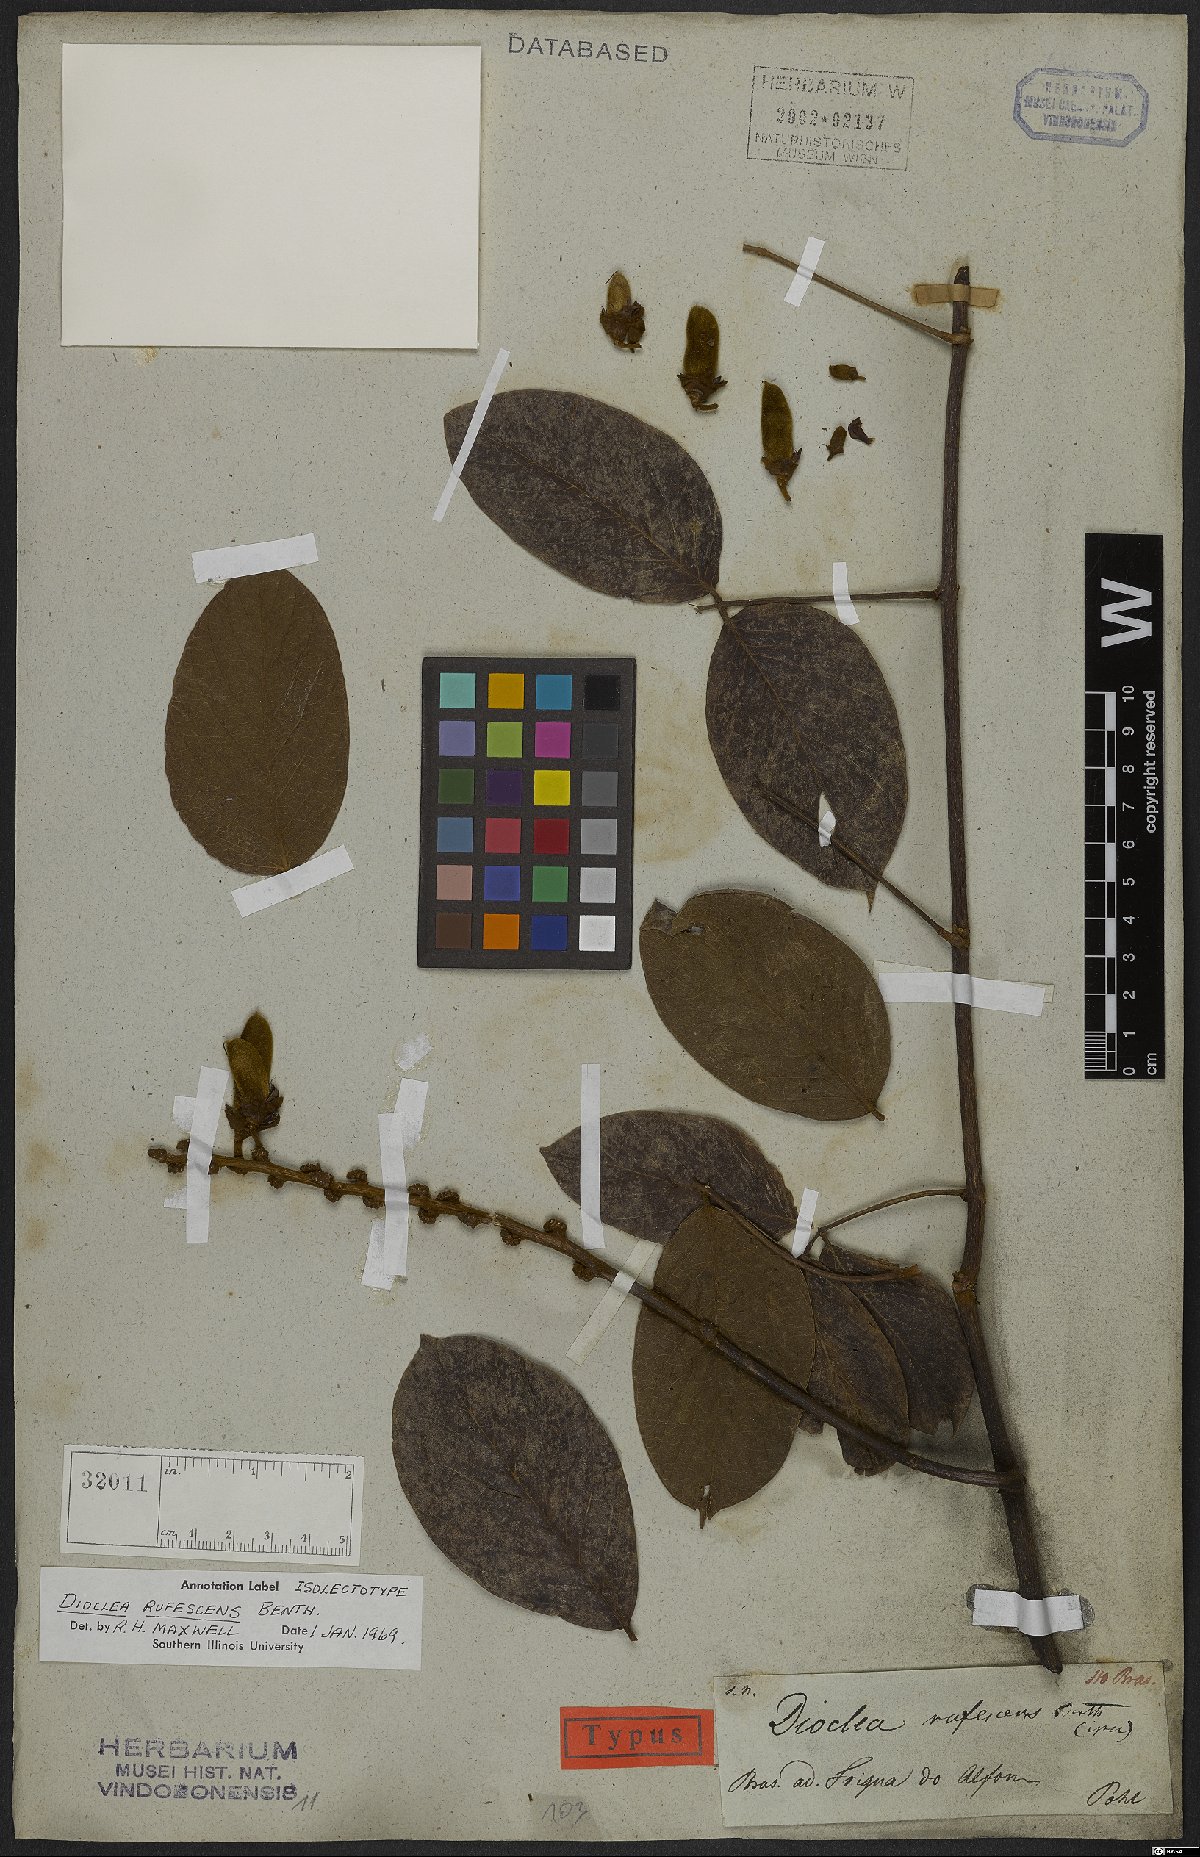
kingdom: Plantae
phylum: Tracheophyta
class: Magnoliopsida
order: Fabales
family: Fabaceae
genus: Macropsychanthus
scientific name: Macropsychanthus rufescens
